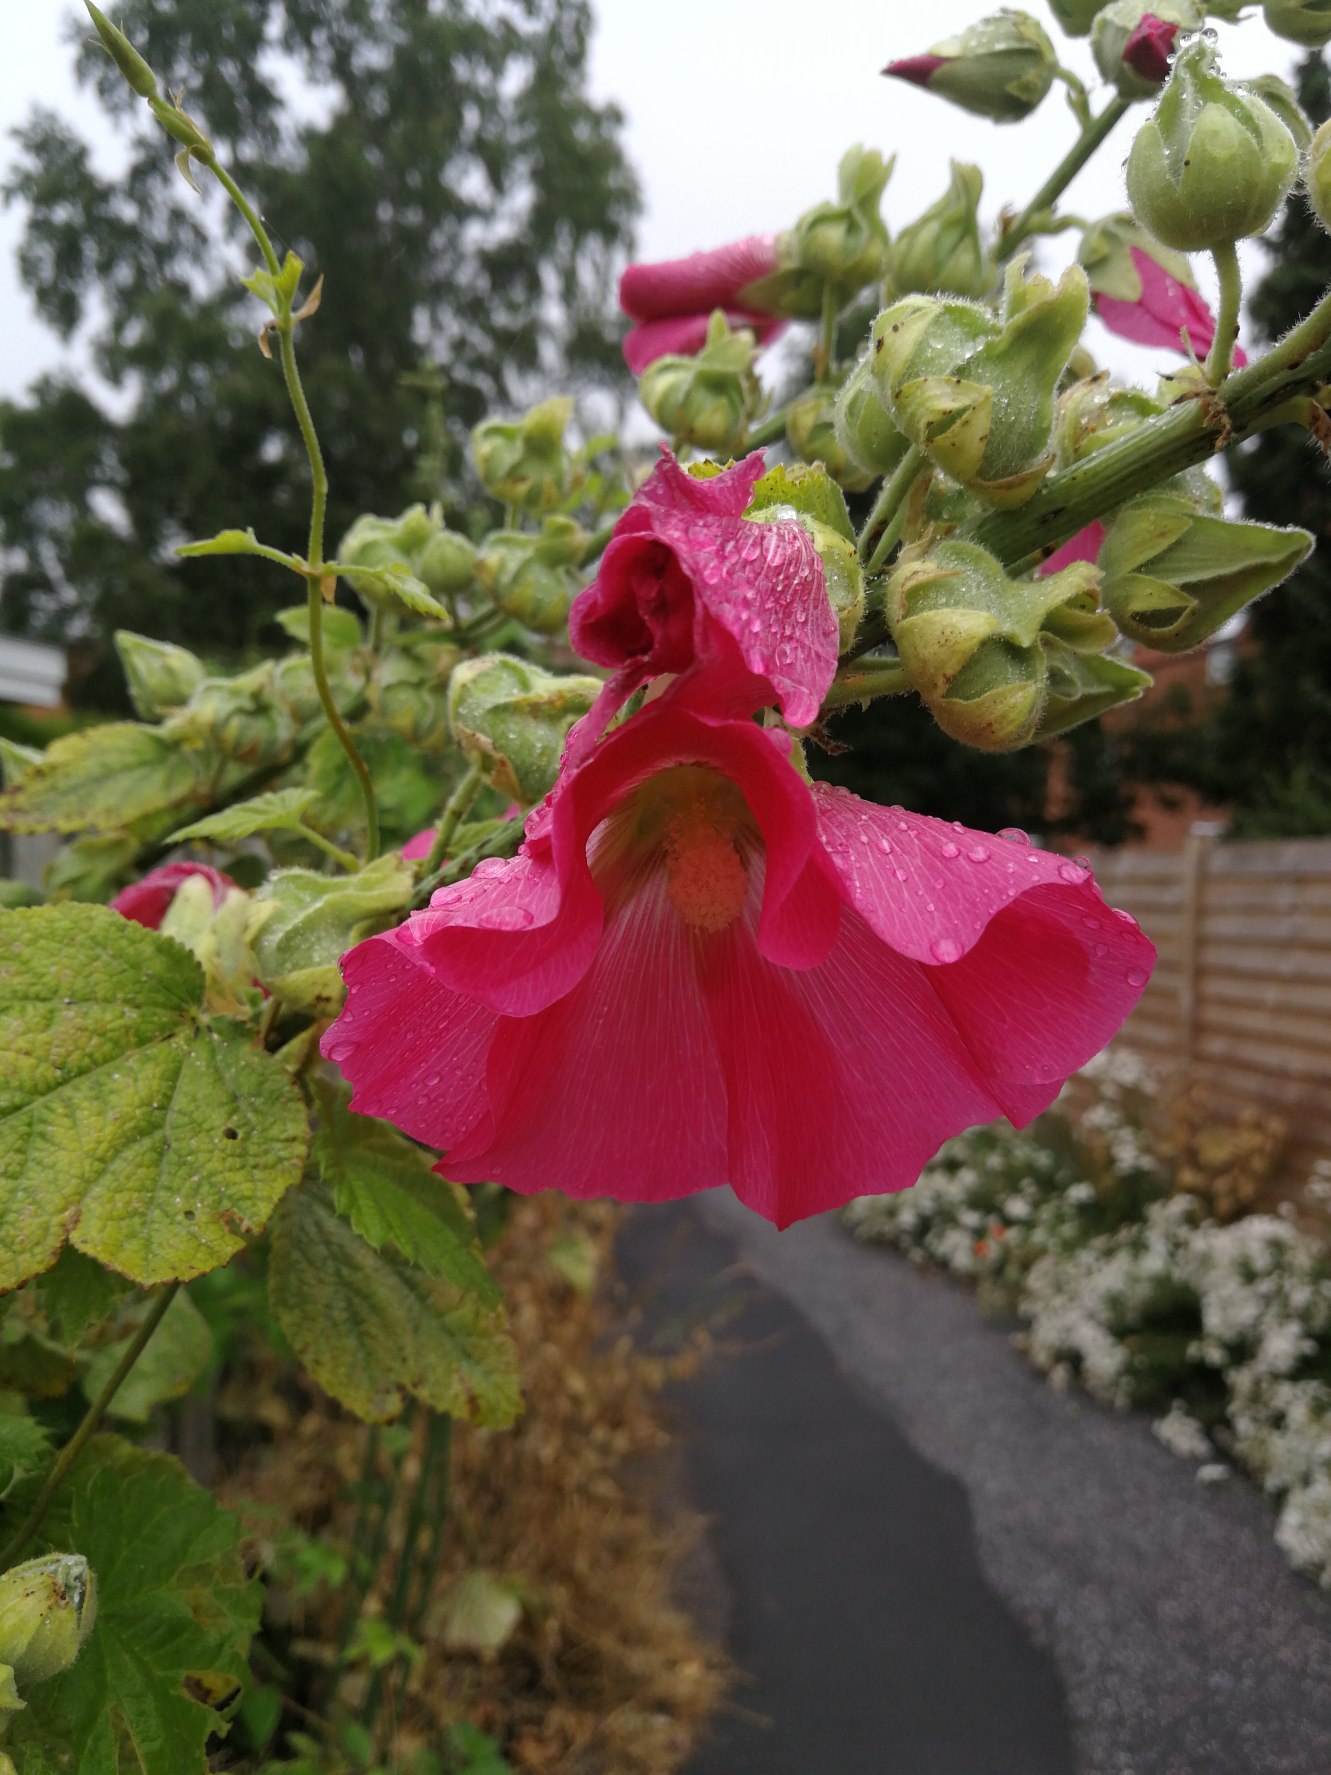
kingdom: Plantae
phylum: Tracheophyta
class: Magnoliopsida
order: Malvales
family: Malvaceae
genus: Alcea
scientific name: Alcea rosea
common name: Have-stokrose
